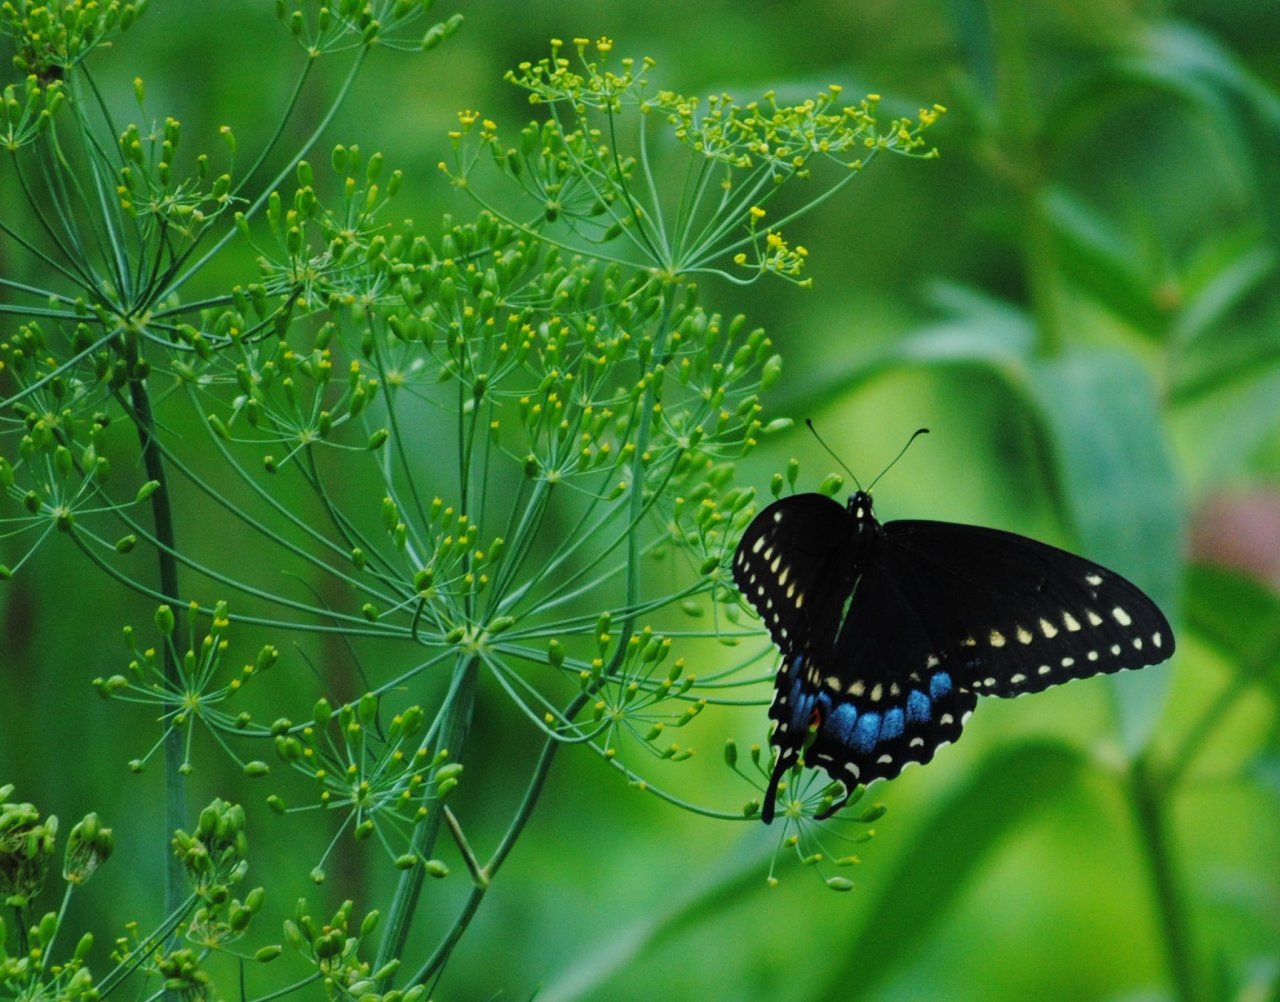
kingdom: Animalia
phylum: Arthropoda
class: Insecta
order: Lepidoptera
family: Papilionidae
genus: Papilio
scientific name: Papilio polyxenes
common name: Black Swallowtail
